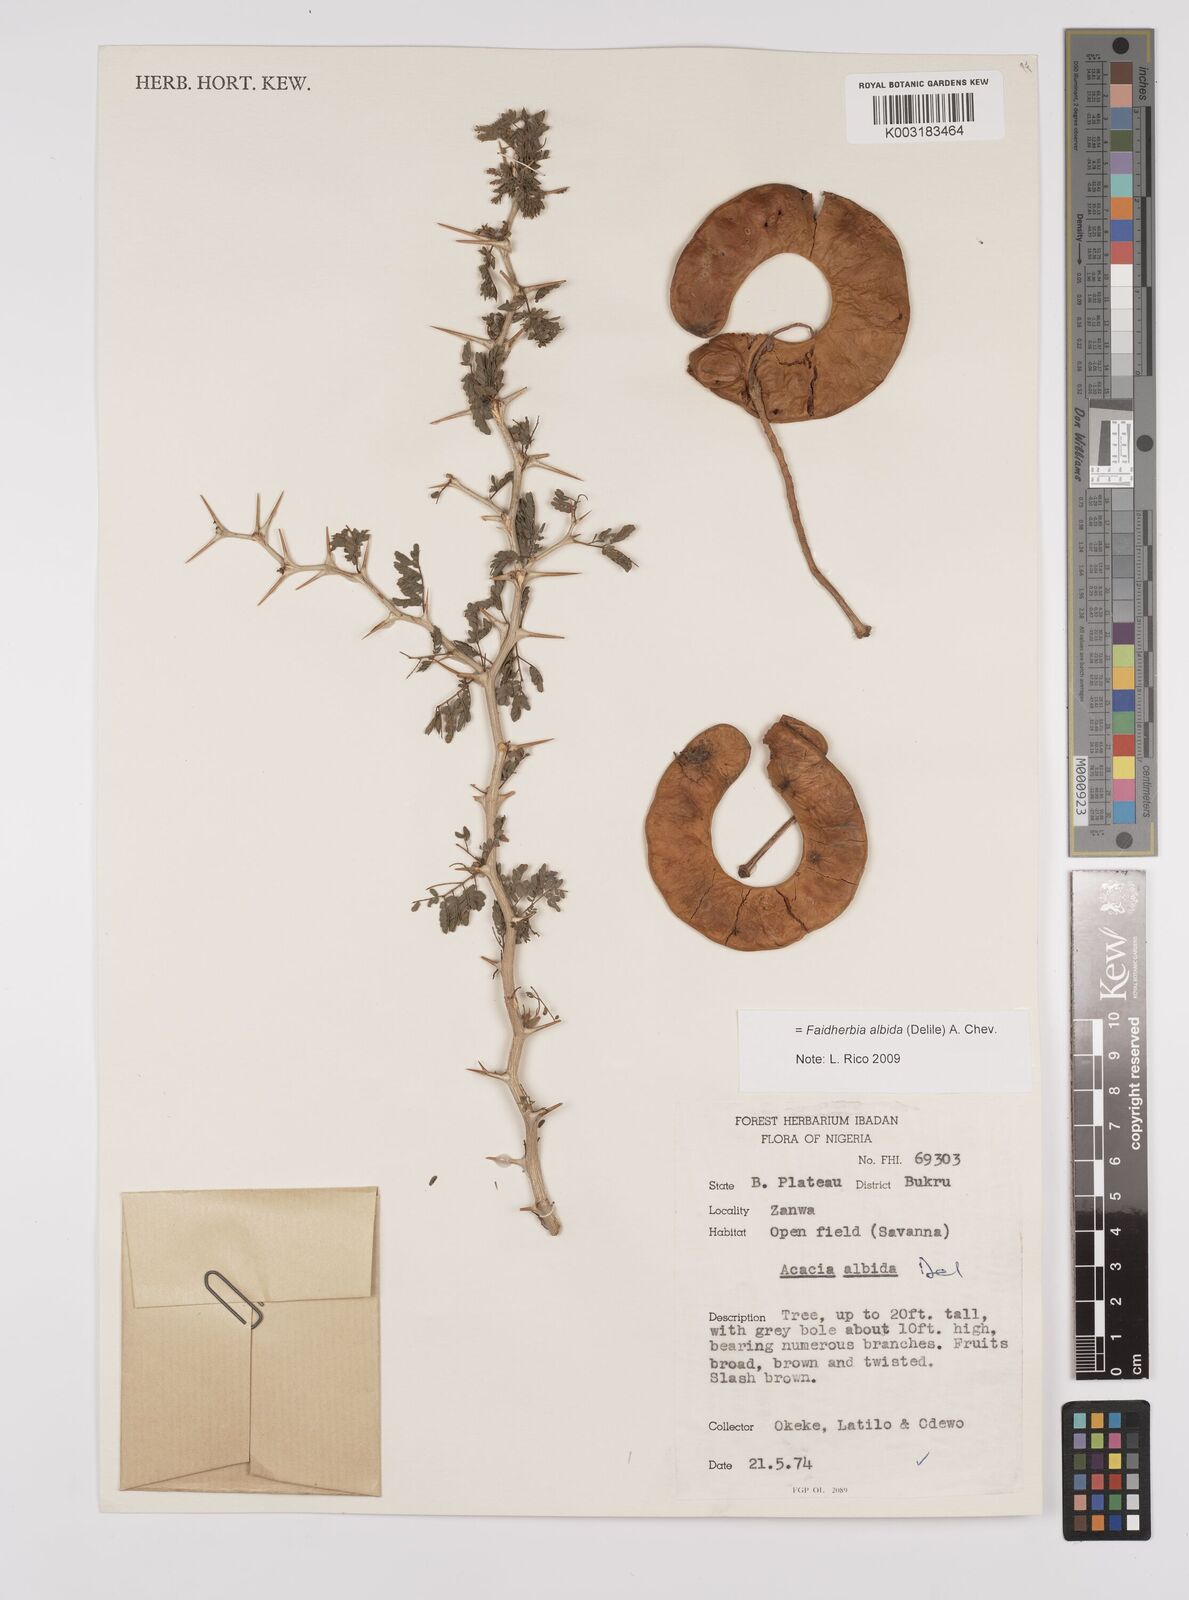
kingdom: Plantae
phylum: Tracheophyta
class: Magnoliopsida
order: Fabales
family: Fabaceae
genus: Faidherbia
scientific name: Faidherbia albida
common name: Anatree
